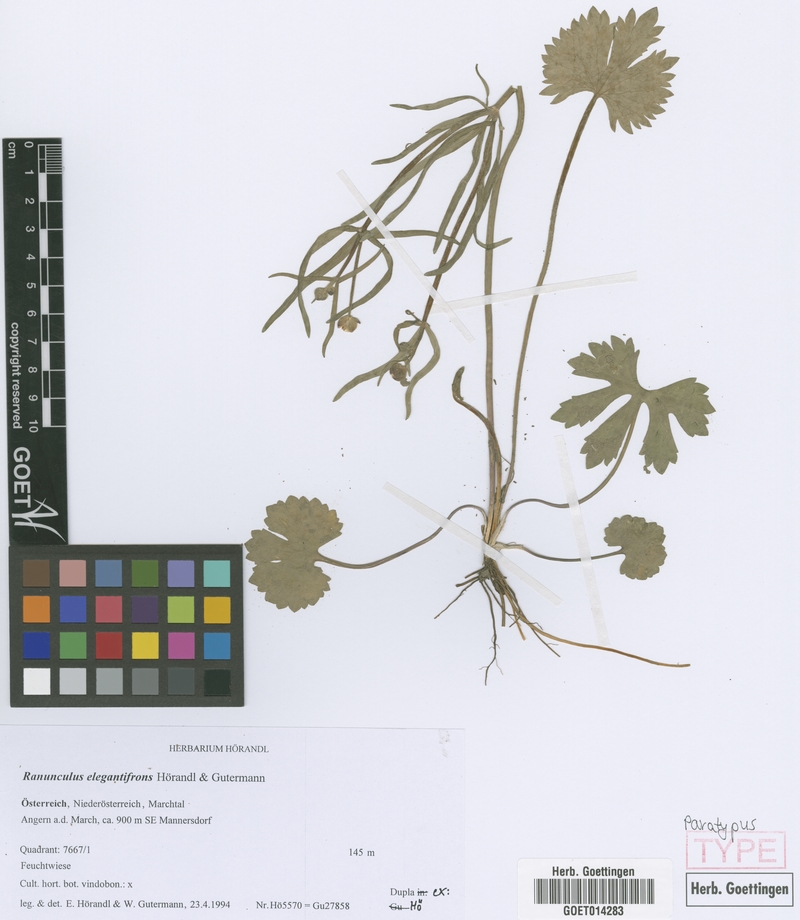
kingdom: Plantae
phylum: Tracheophyta
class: Magnoliopsida
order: Ranunculales
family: Ranunculaceae
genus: Ranunculus
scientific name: Ranunculus elegantifrons
